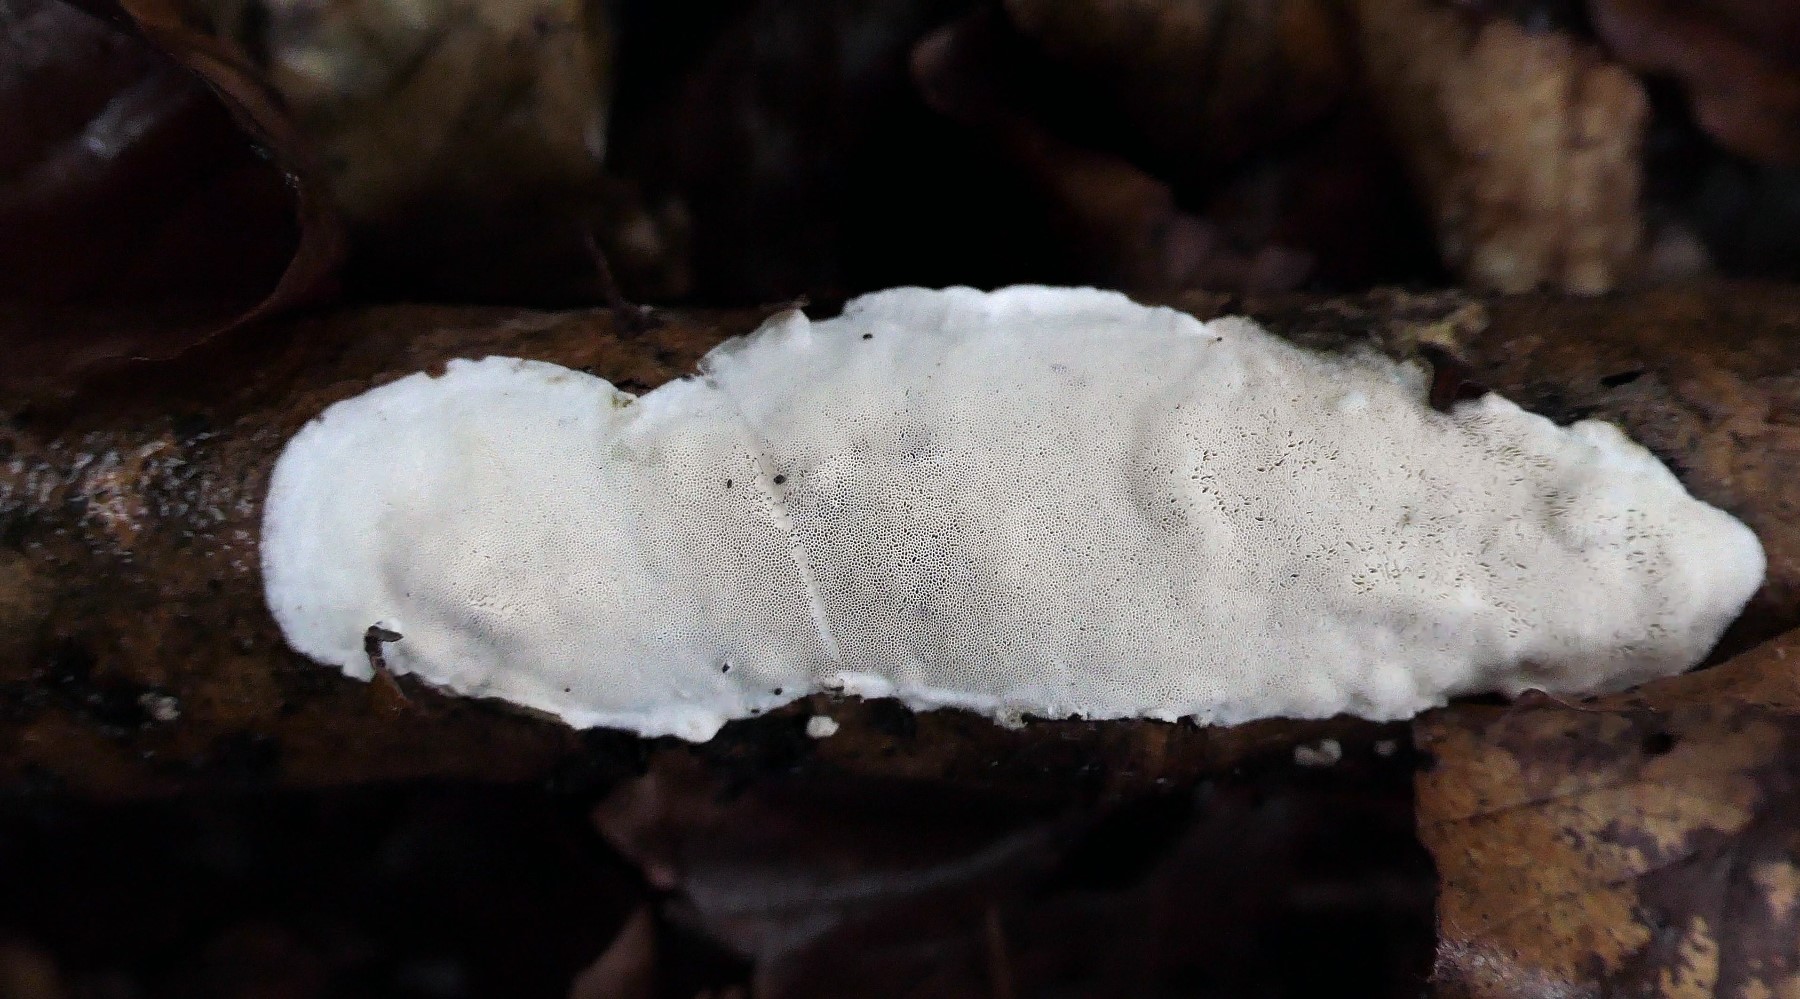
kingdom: Fungi
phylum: Basidiomycota
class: Agaricomycetes
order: Polyporales
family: Incrustoporiaceae
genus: Skeletocutis
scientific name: Skeletocutis nemoralis
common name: stor krystalporesvamp
